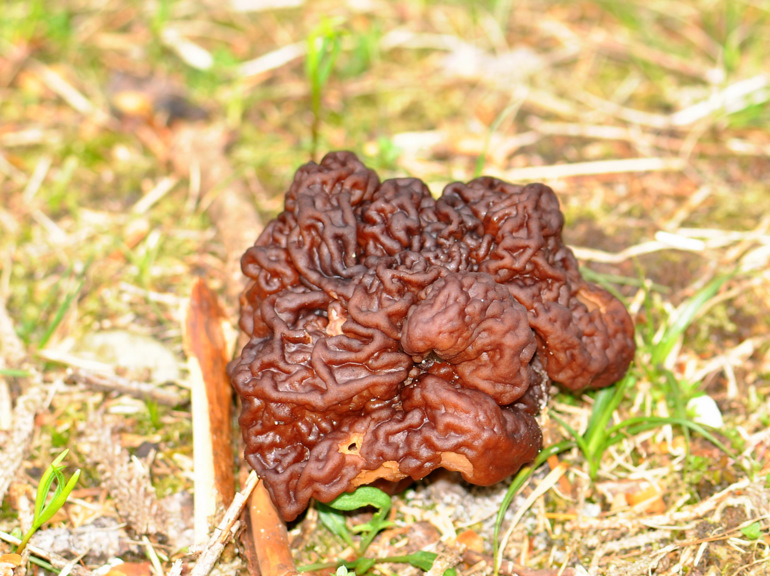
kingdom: Fungi
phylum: Ascomycota
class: Pezizomycetes
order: Pezizales
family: Discinaceae
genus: Gyromitra
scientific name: Gyromitra esculenta
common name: ægte stenmorkel
